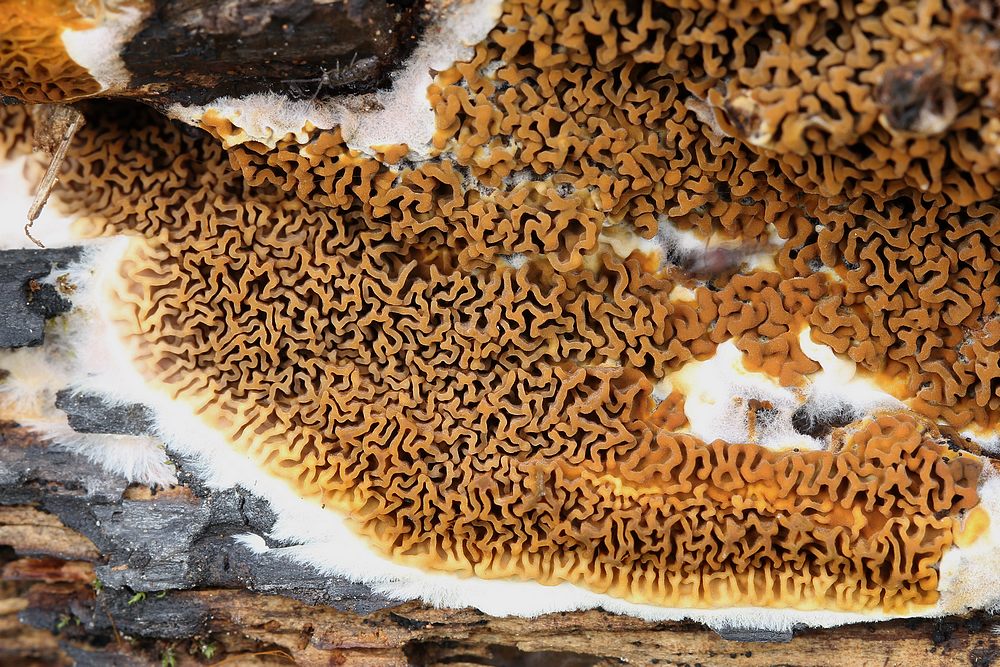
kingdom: Fungi
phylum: Basidiomycota
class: Agaricomycetes
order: Boletales
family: Serpulaceae
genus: Serpula
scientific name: Serpula himantioides
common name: tyndkødet hussvamp
